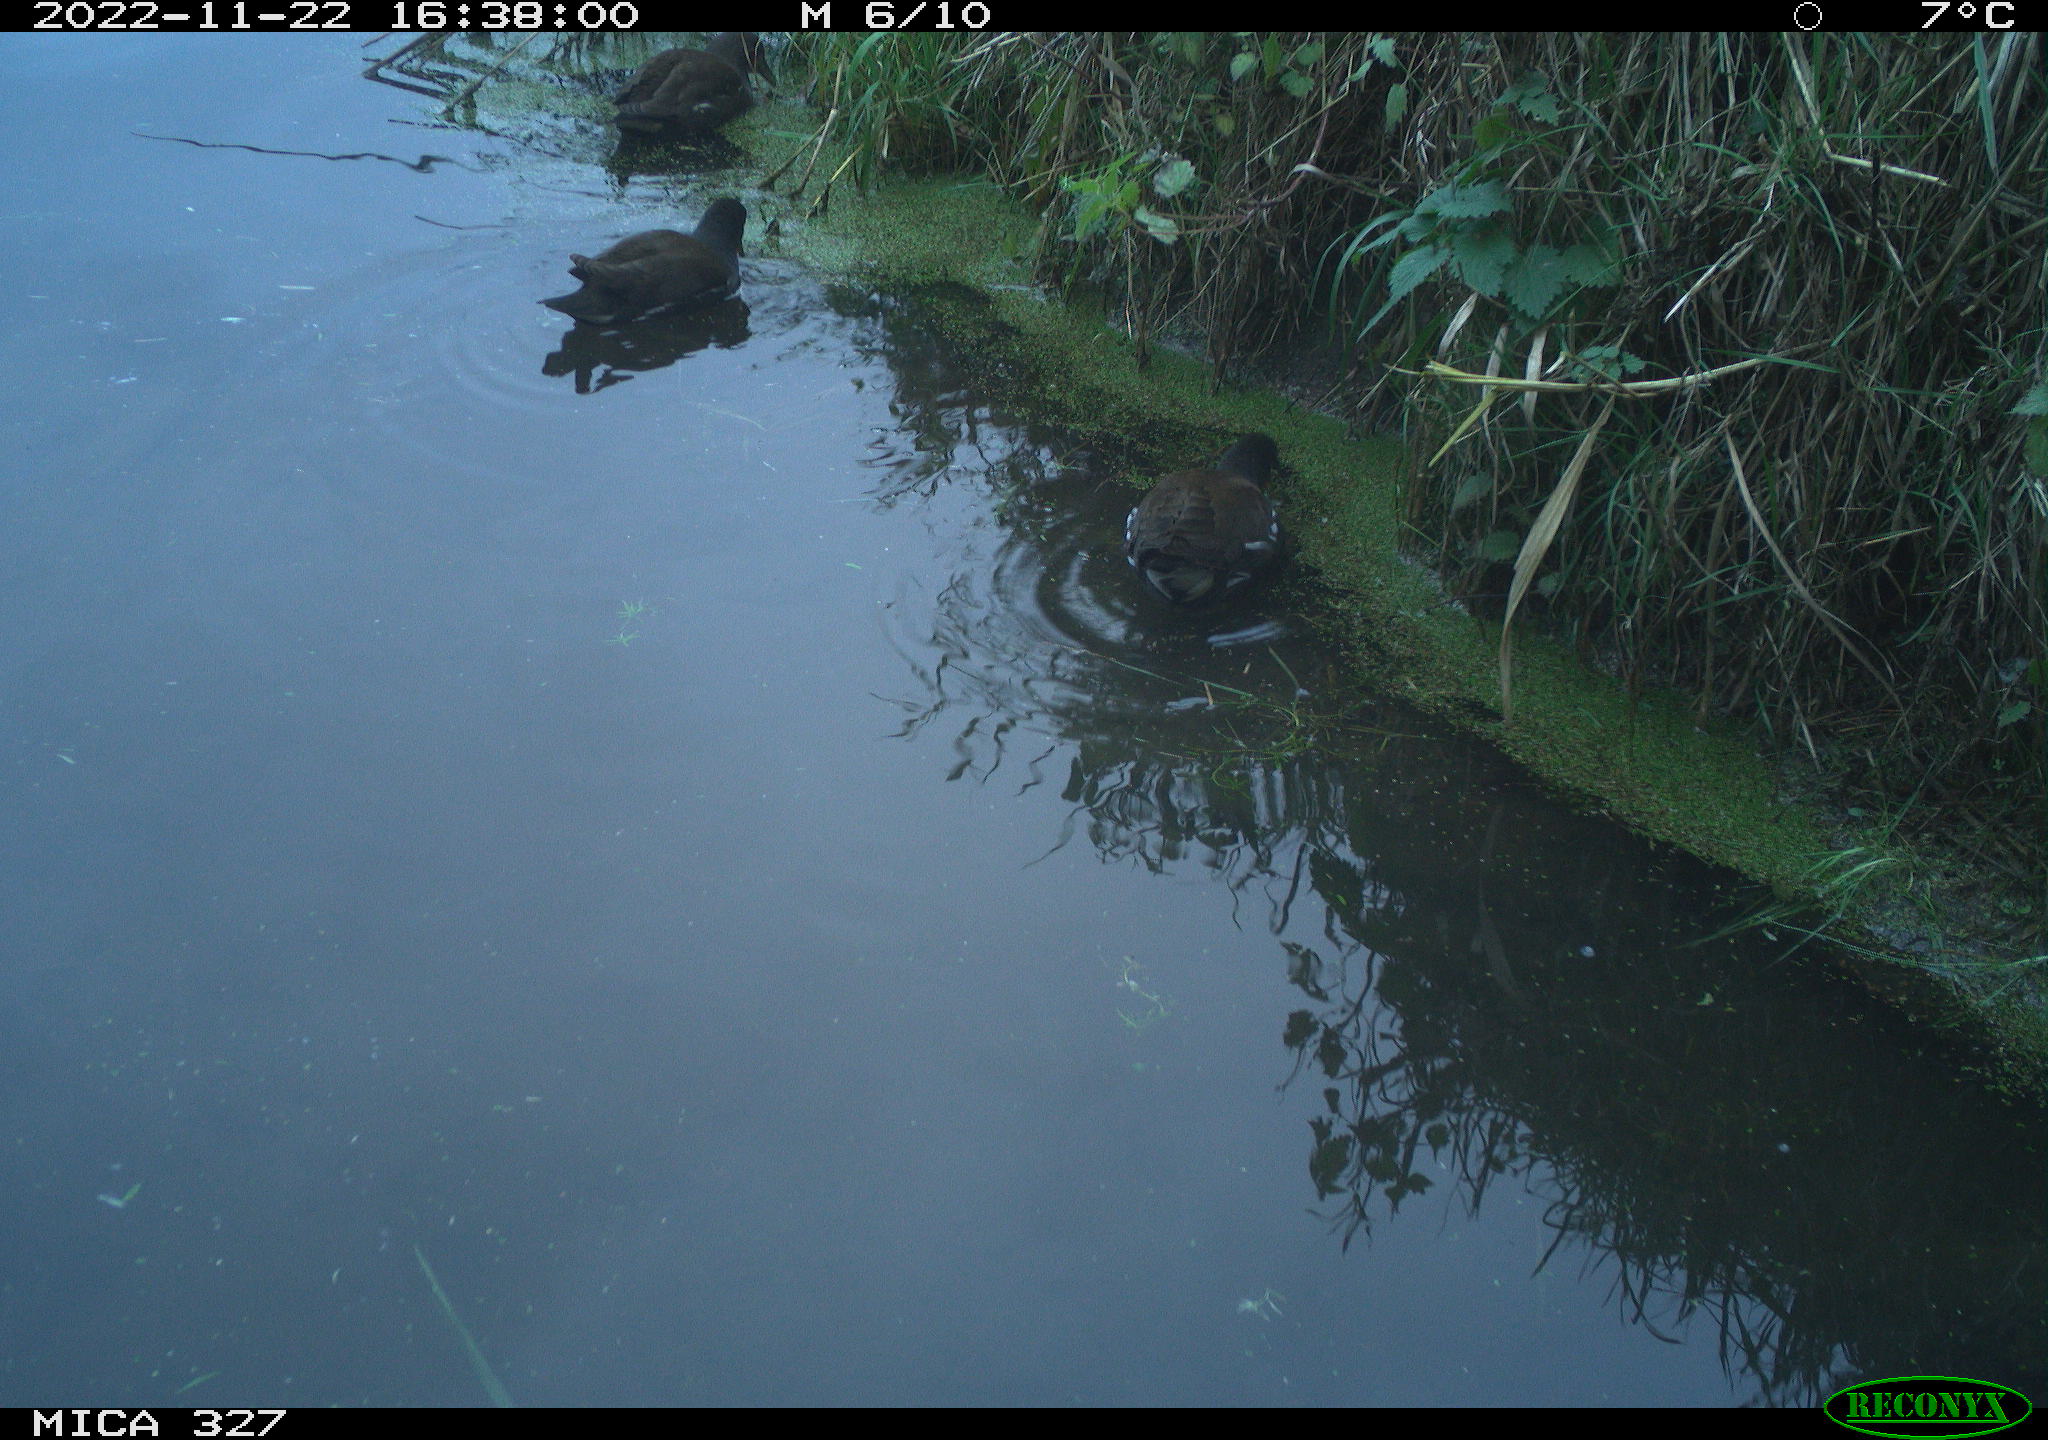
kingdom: Animalia
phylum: Chordata
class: Aves
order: Gruiformes
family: Rallidae
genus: Gallinula
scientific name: Gallinula chloropus
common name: Common moorhen
